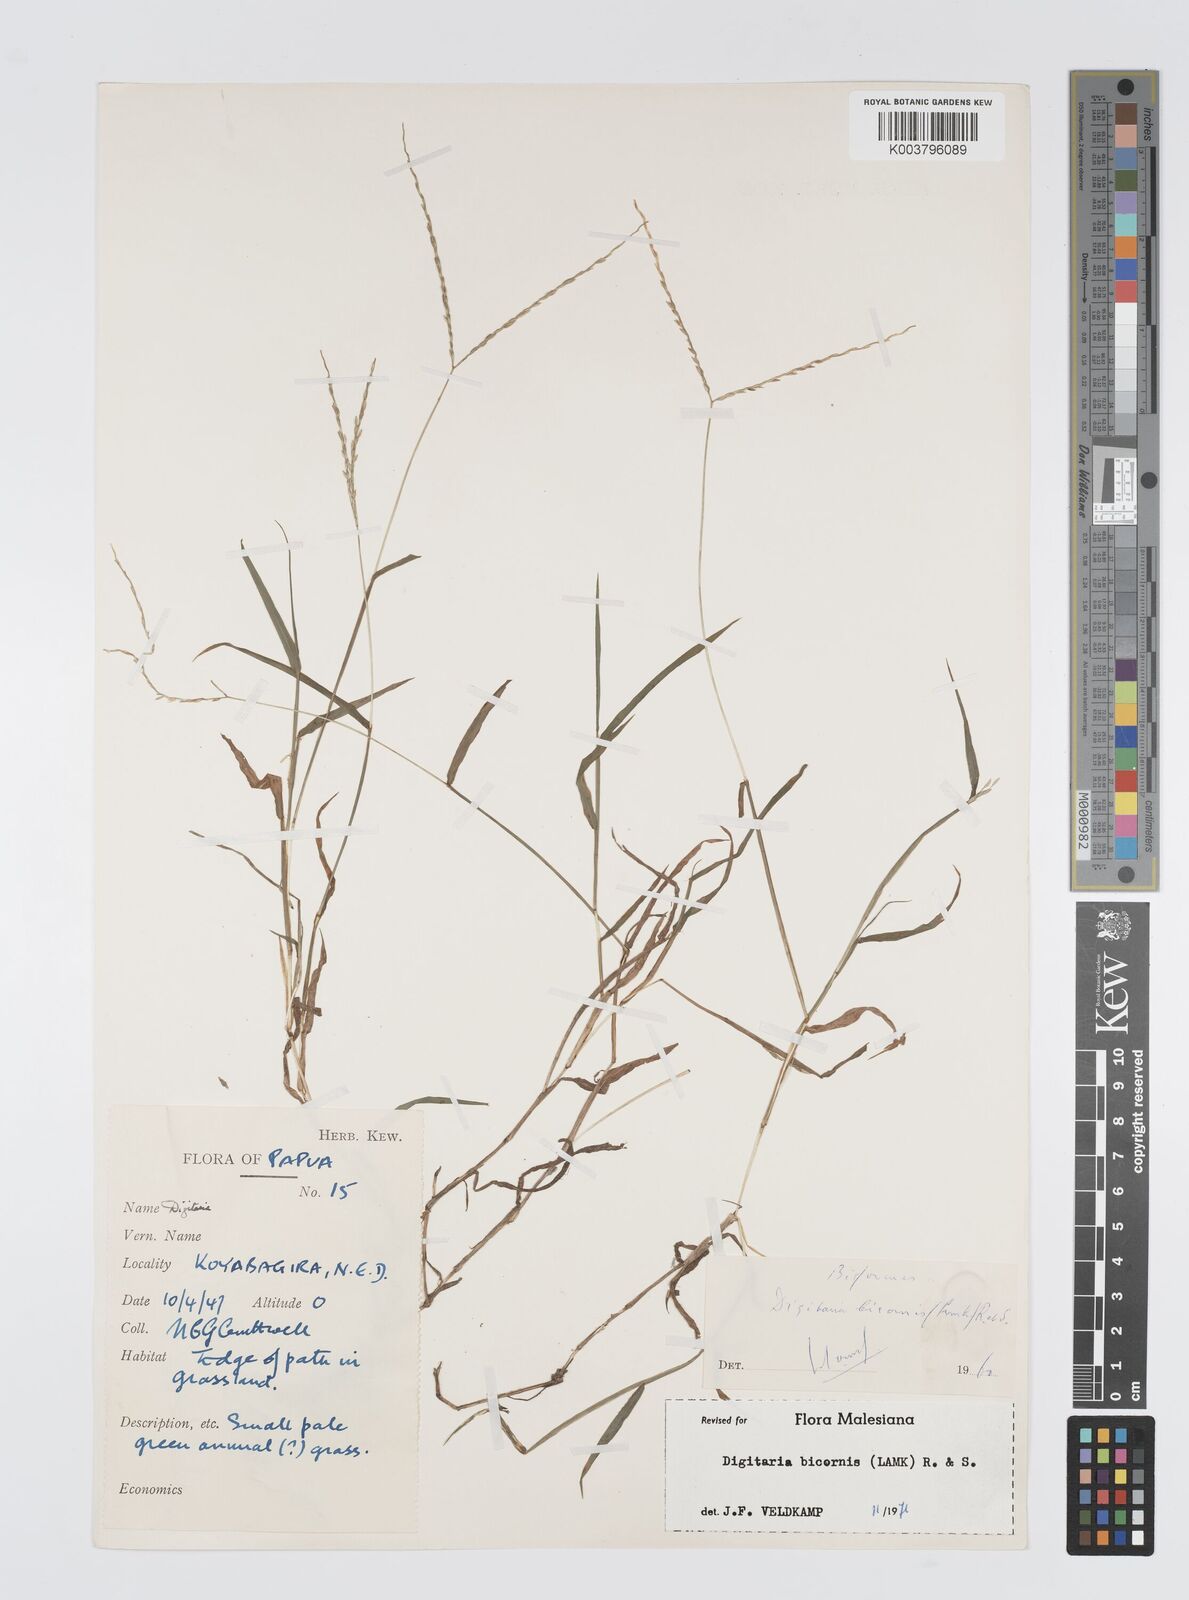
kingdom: Plantae
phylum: Tracheophyta
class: Liliopsida
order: Poales
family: Poaceae
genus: Digitaria
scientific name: Digitaria ciliaris
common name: Tropical finger-grass
